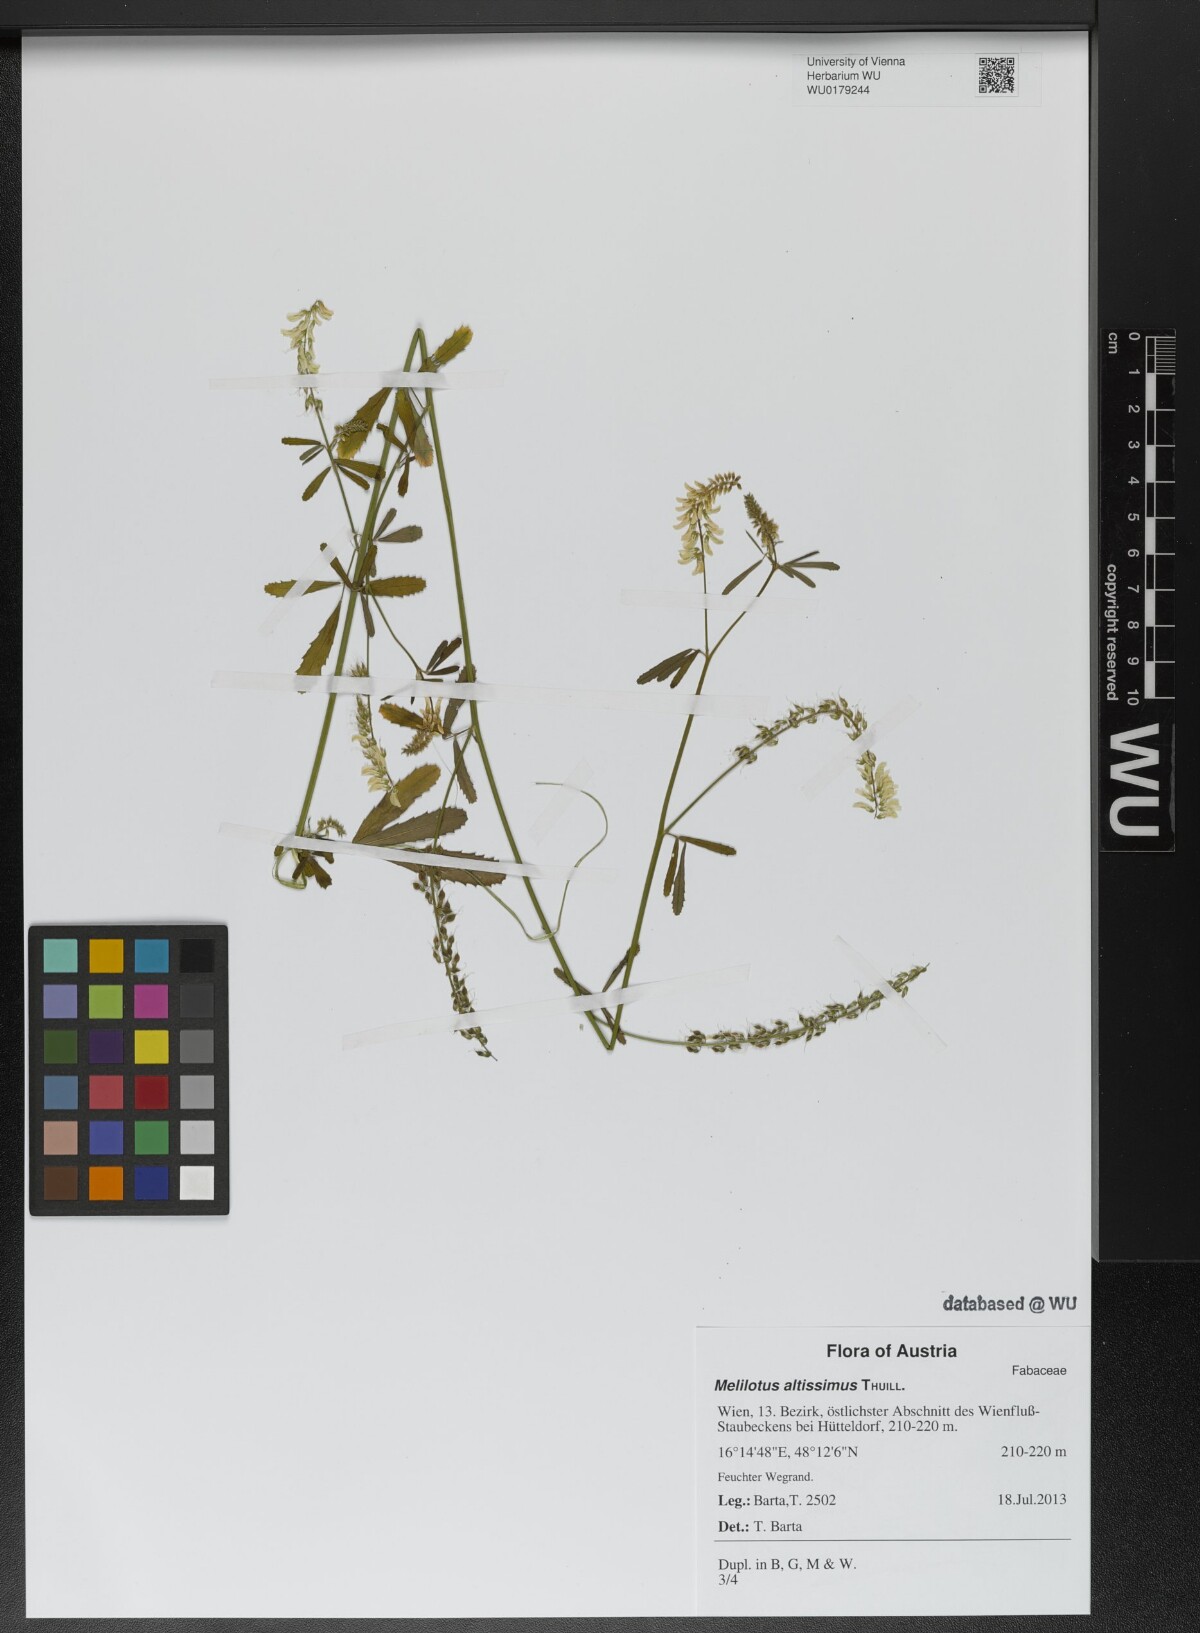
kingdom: Plantae
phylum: Tracheophyta
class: Magnoliopsida
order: Fabales
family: Fabaceae
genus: Melilotus
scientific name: Melilotus altissimus
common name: Tall melilot
